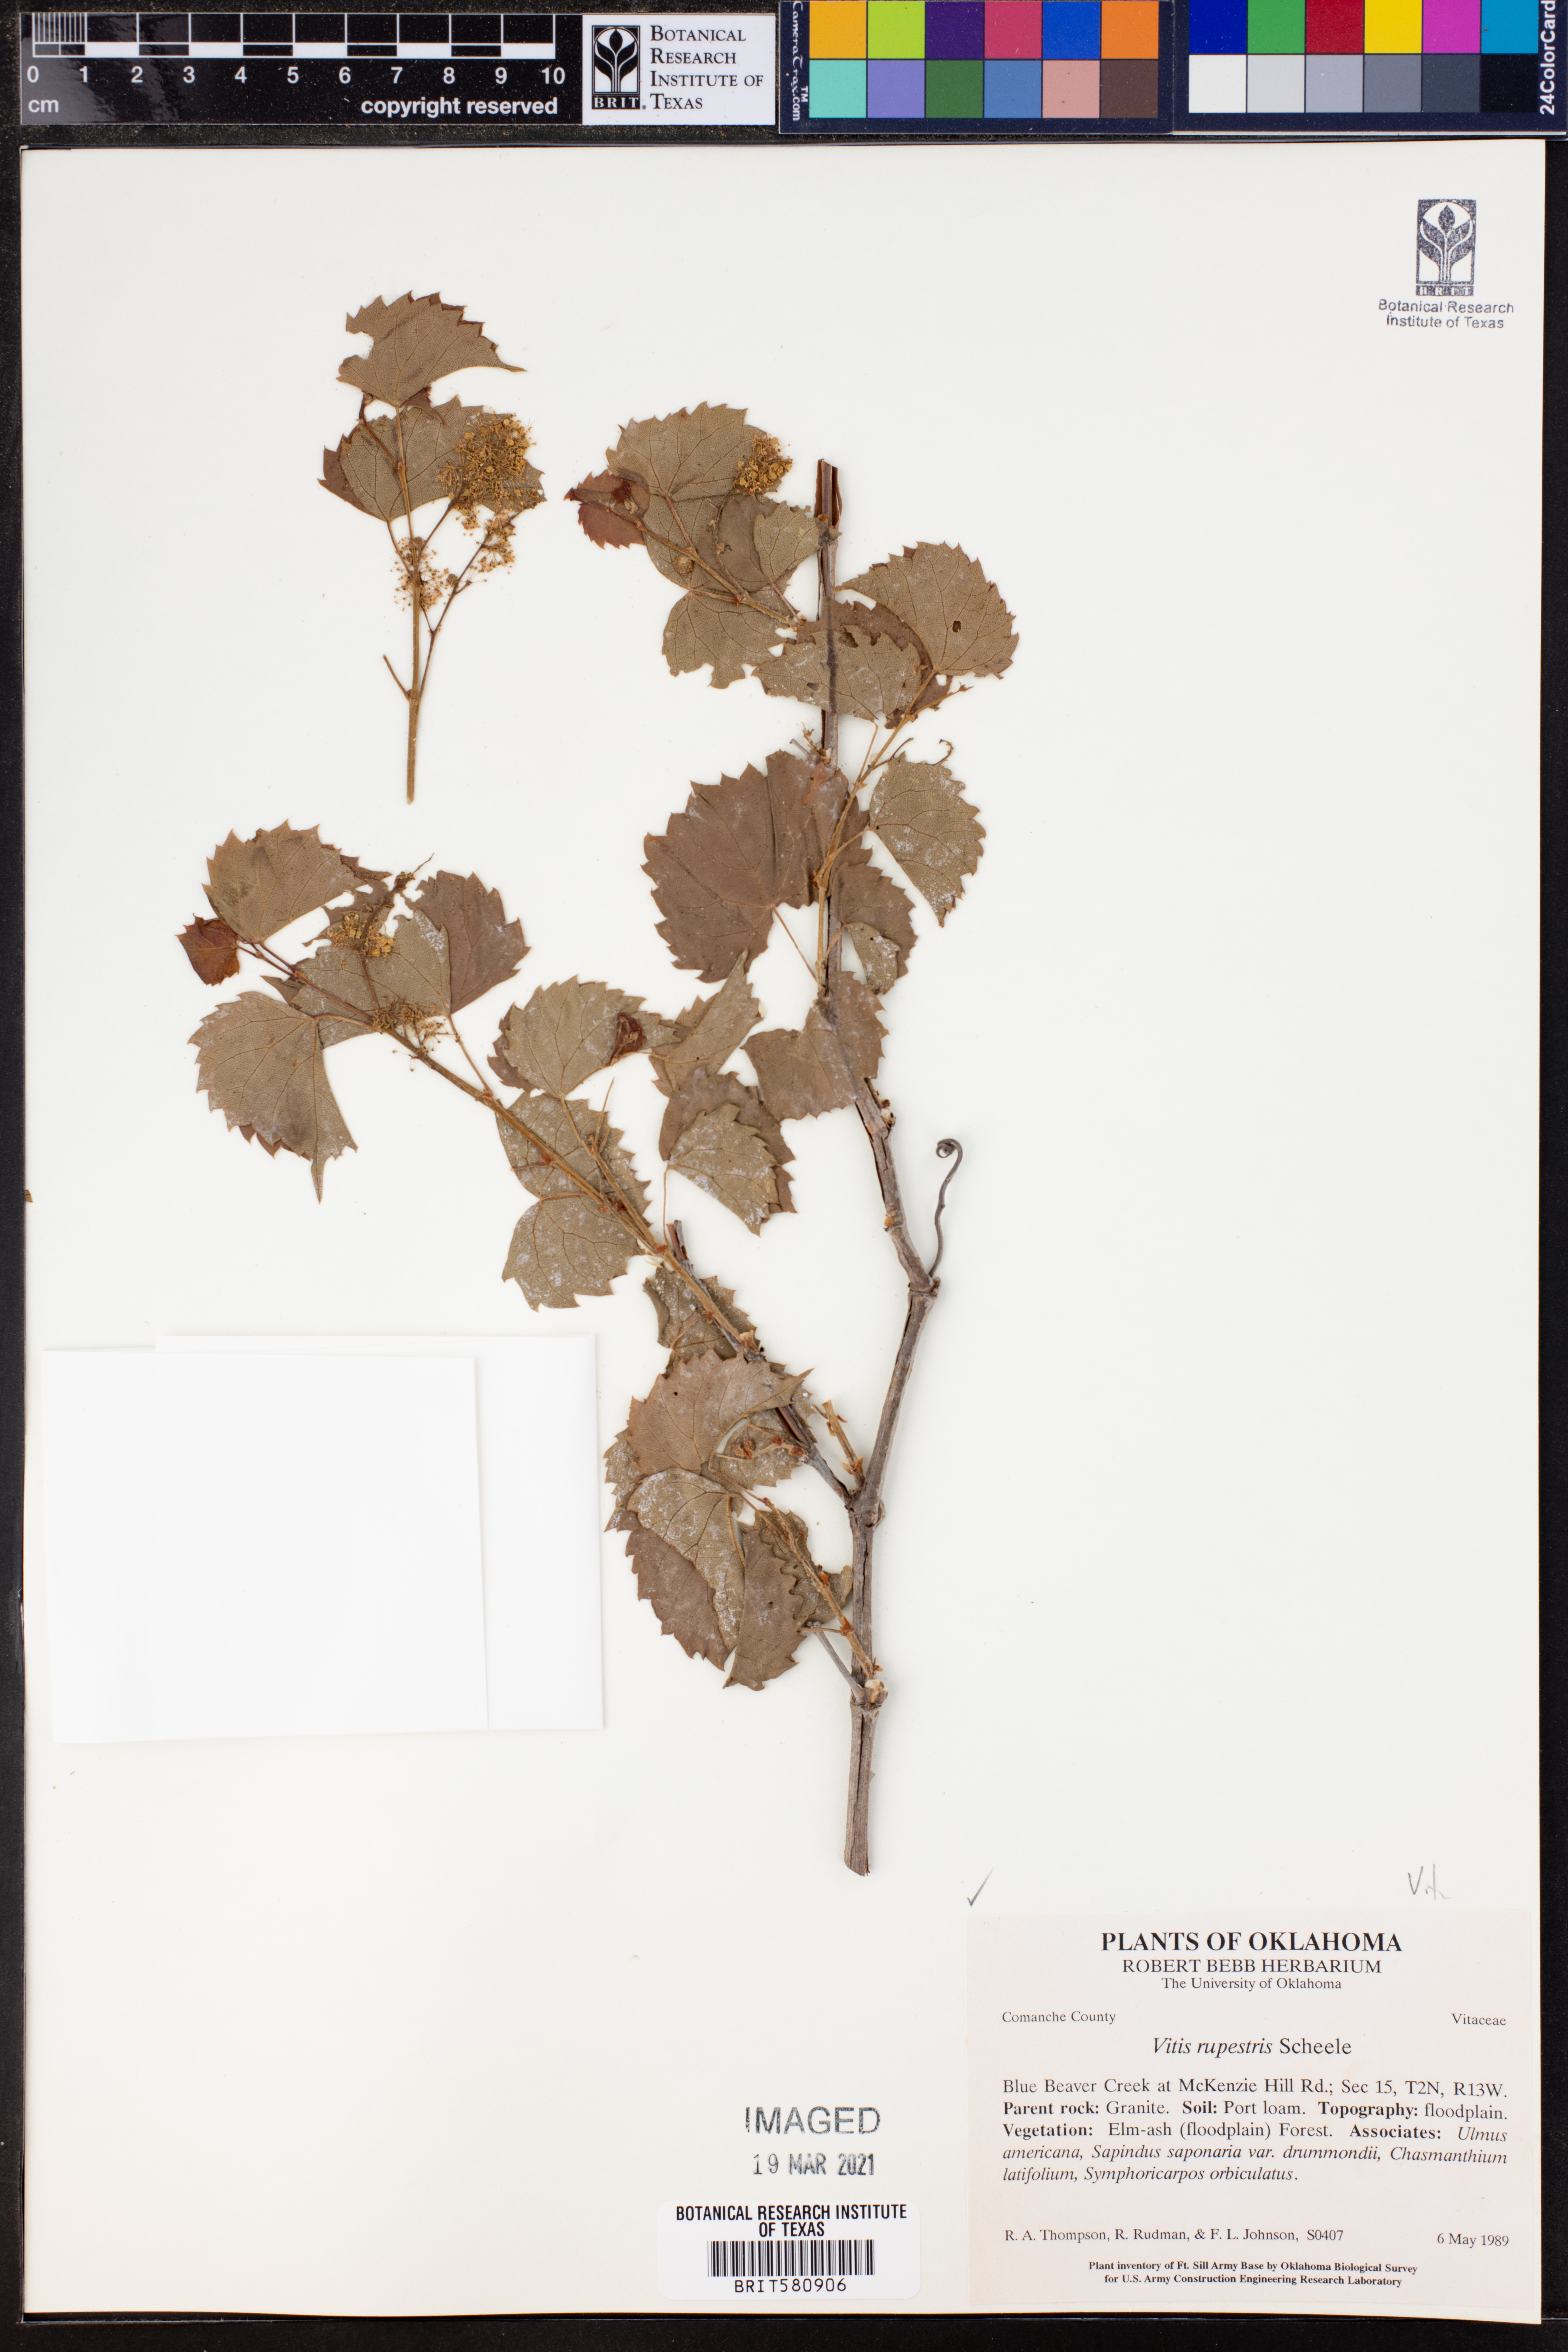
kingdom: Plantae
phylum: Tracheophyta
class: Magnoliopsida
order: Vitales
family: Vitaceae
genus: Vitis
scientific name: Vitis rupestris
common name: Rock grape
